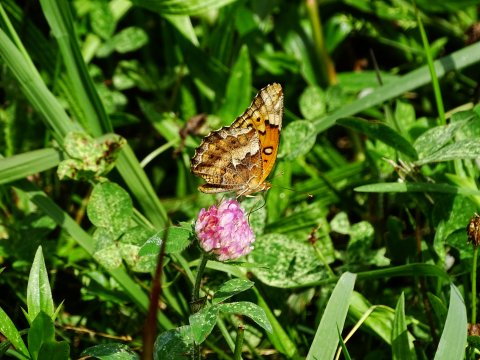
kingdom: Animalia
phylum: Arthropoda
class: Insecta
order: Lepidoptera
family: Nymphalidae
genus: Euptoieta
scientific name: Euptoieta claudia
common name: Variegated Fritillary
